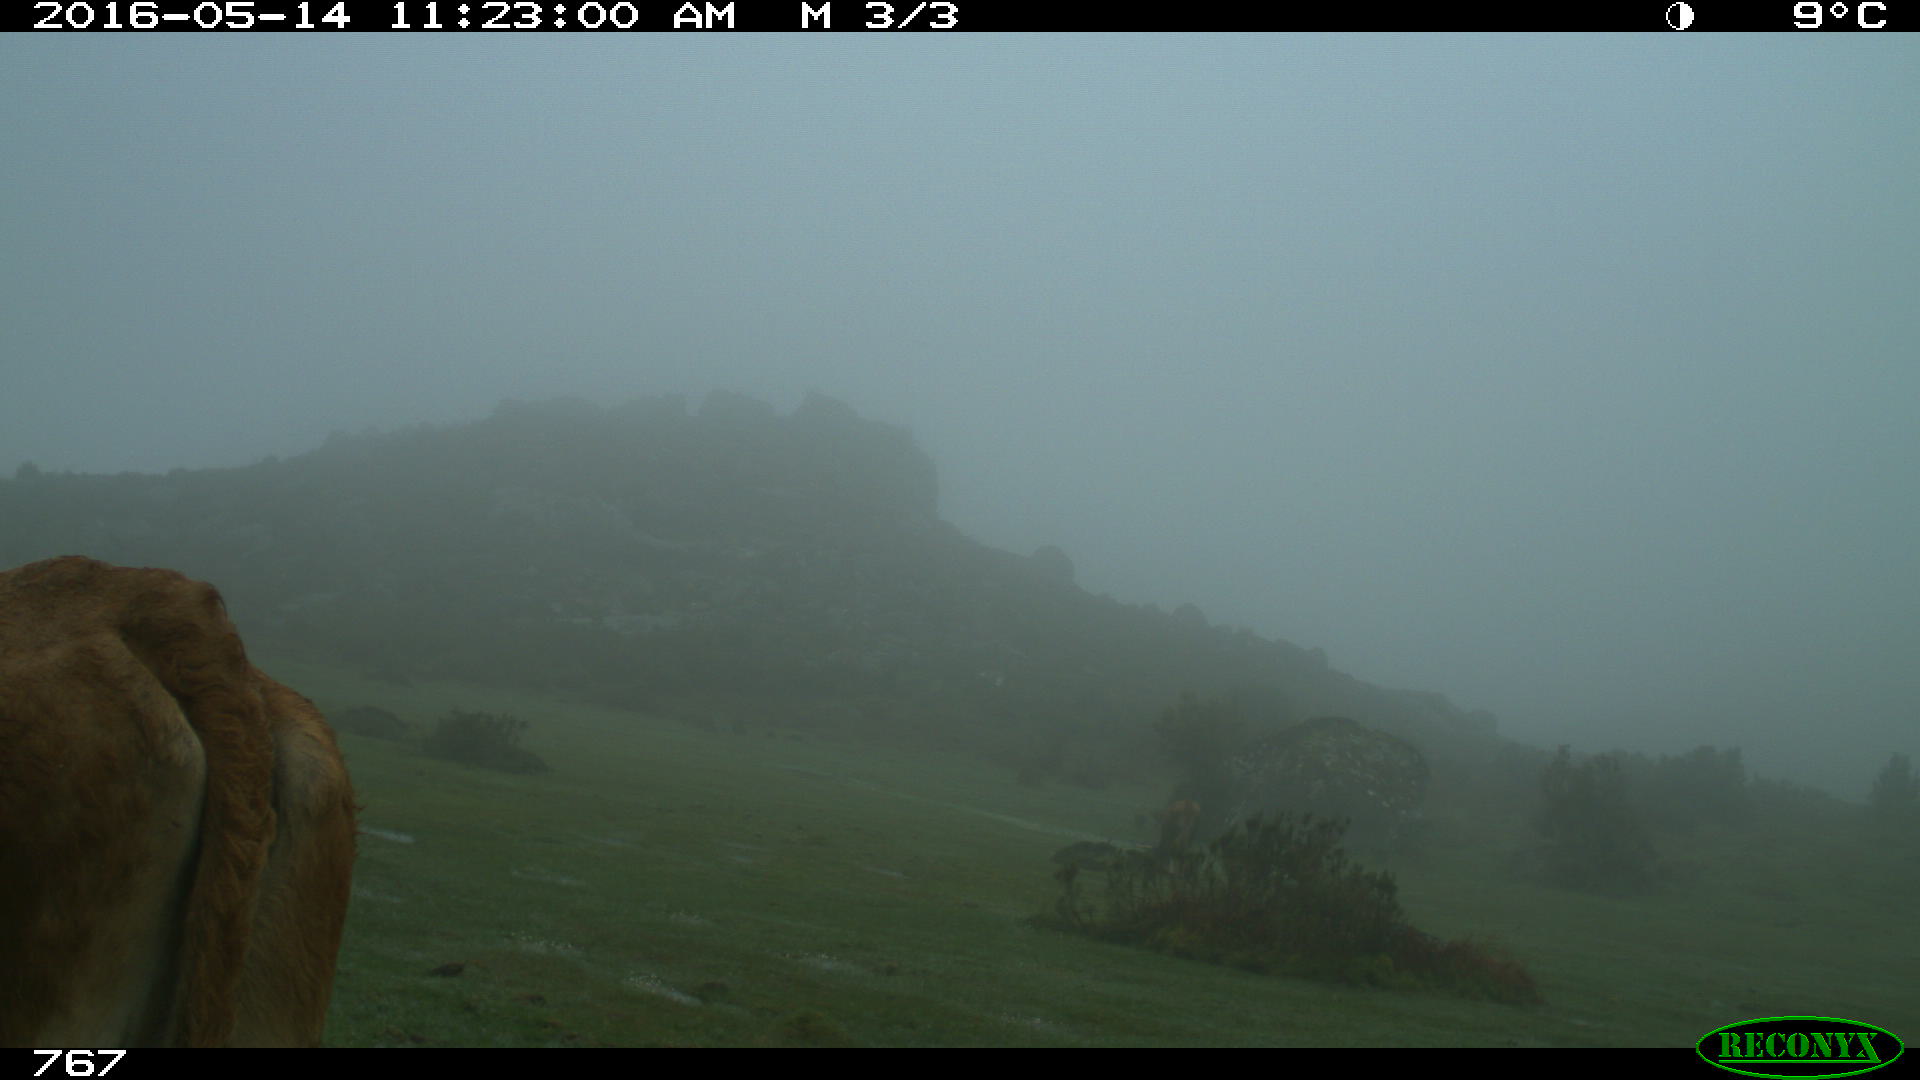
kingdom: Animalia
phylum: Chordata
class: Mammalia
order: Artiodactyla
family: Bovidae
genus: Bos
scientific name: Bos taurus
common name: Domesticated cattle
